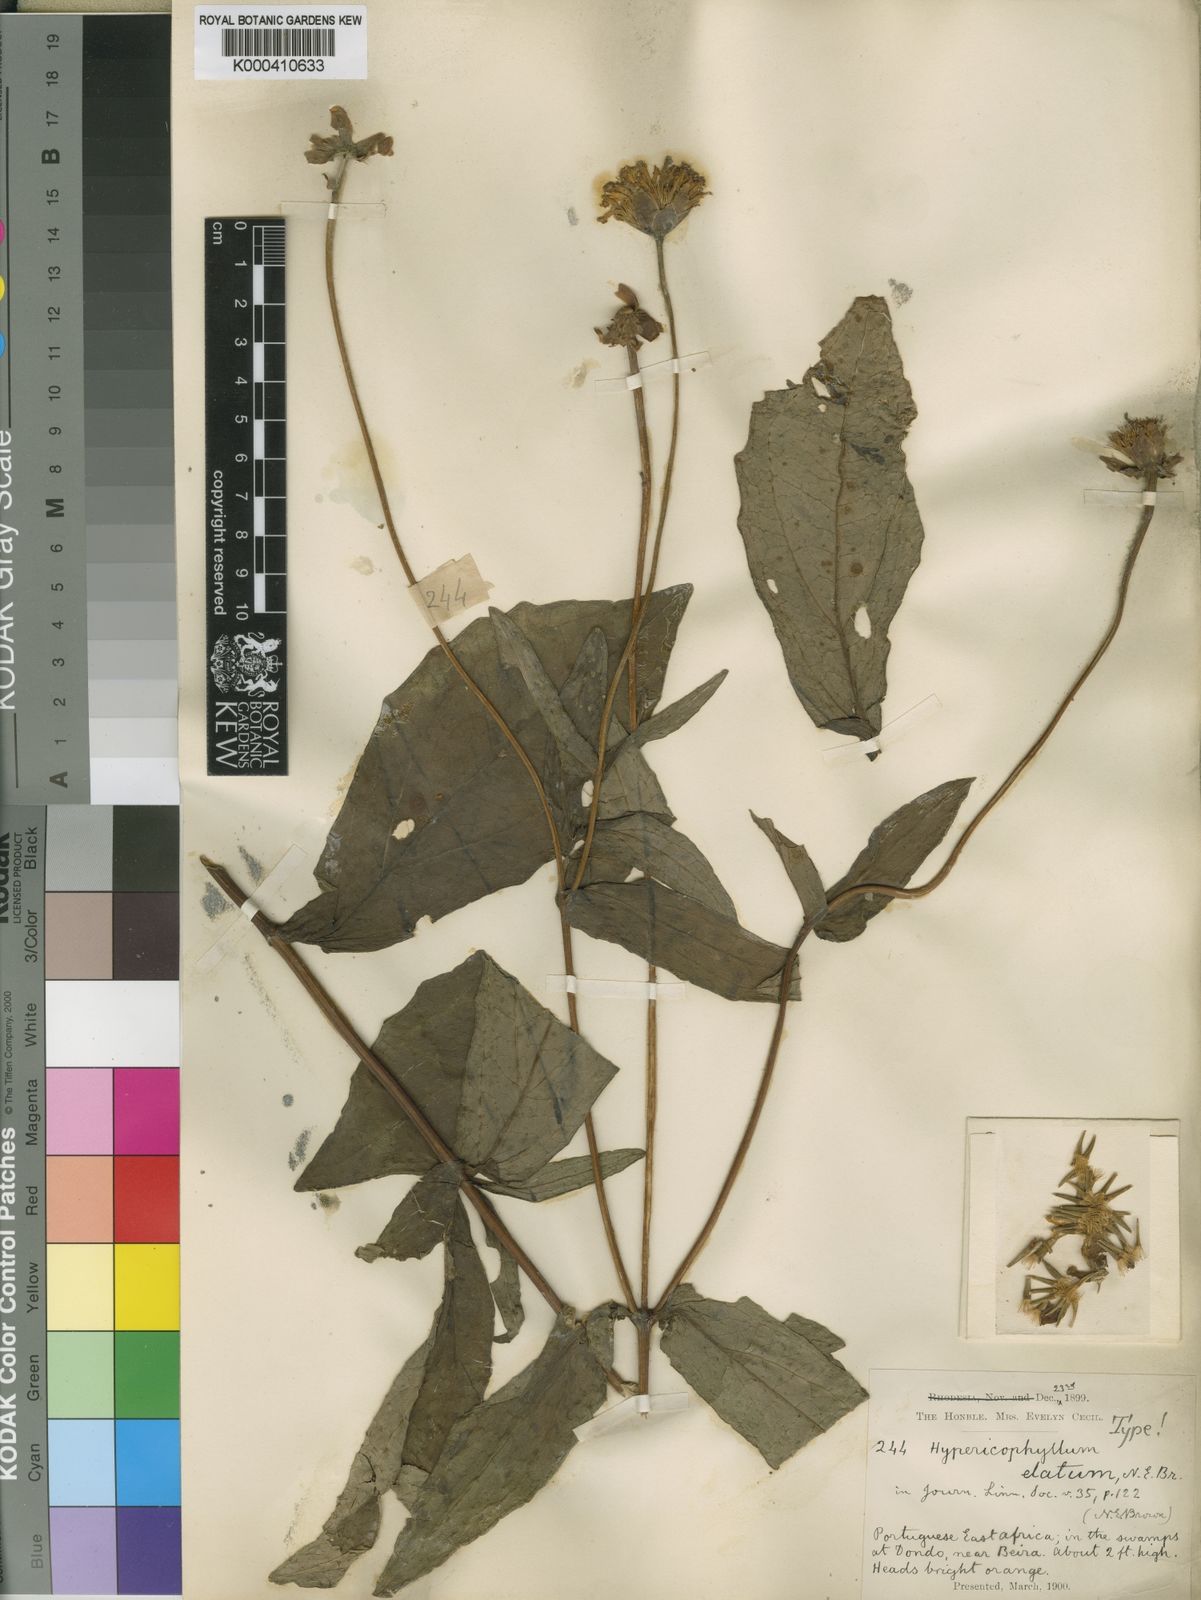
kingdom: Plantae
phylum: Tracheophyta
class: Magnoliopsida
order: Asterales
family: Asteraceae
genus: Hypericophyllum
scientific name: Hypericophyllum elatum
